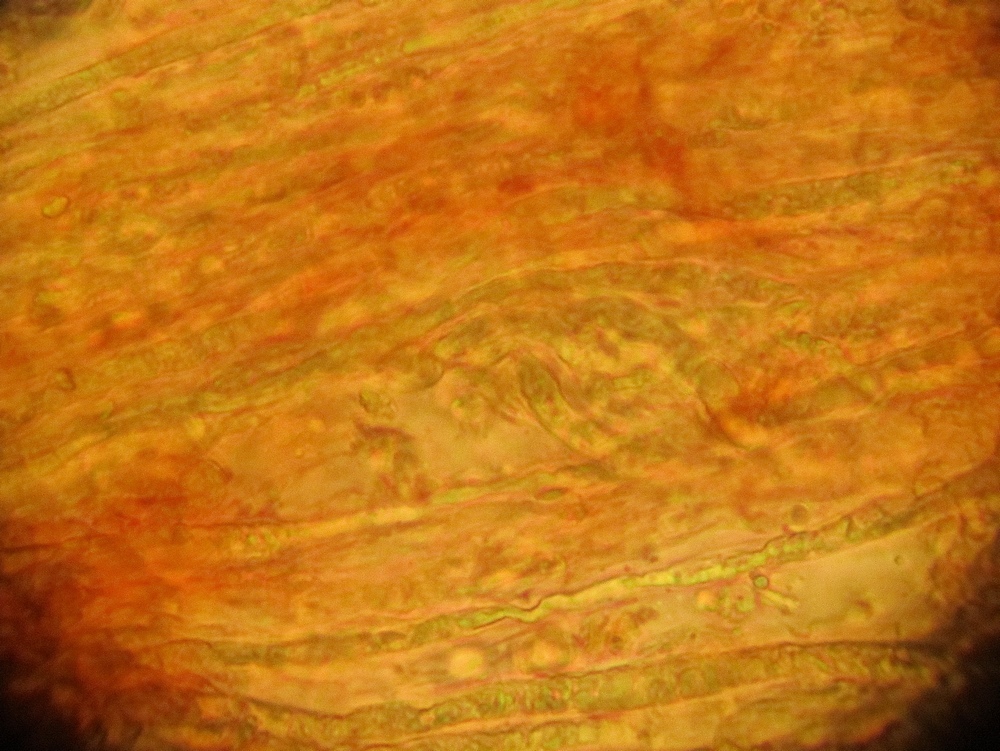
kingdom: Fungi
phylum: Basidiomycota
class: Agaricomycetes
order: Russulales
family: Peniophoraceae
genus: Gloiothele
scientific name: Gloiothele lactescens
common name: bitter olieskind
